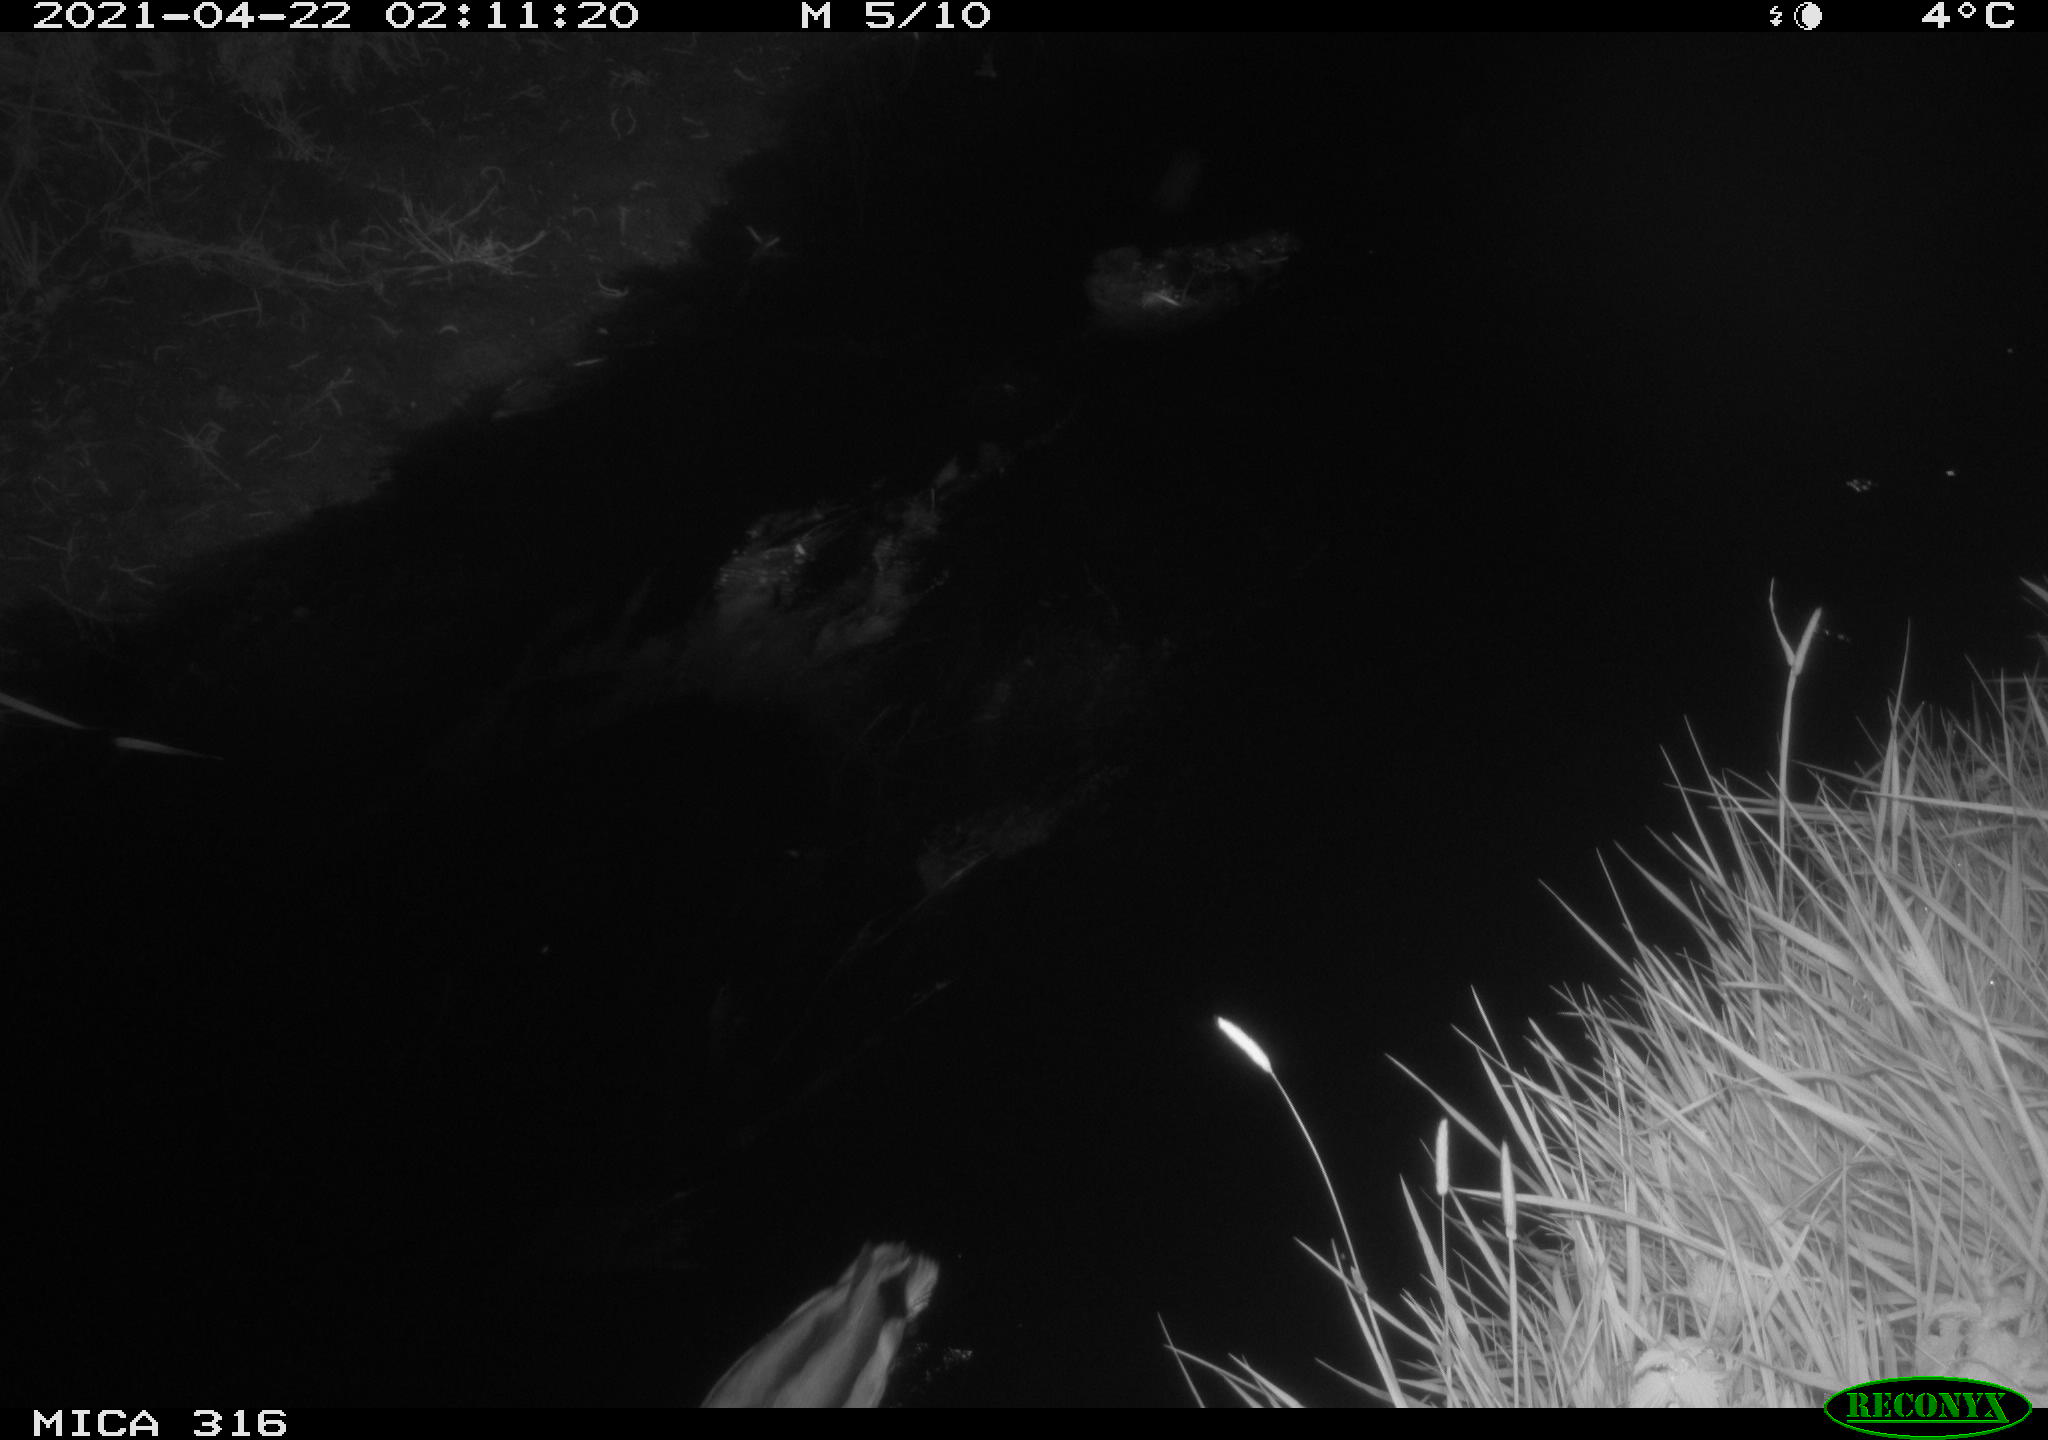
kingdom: Animalia
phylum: Chordata
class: Aves
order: Anseriformes
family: Anatidae
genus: Anas
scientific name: Anas platyrhynchos
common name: Mallard
